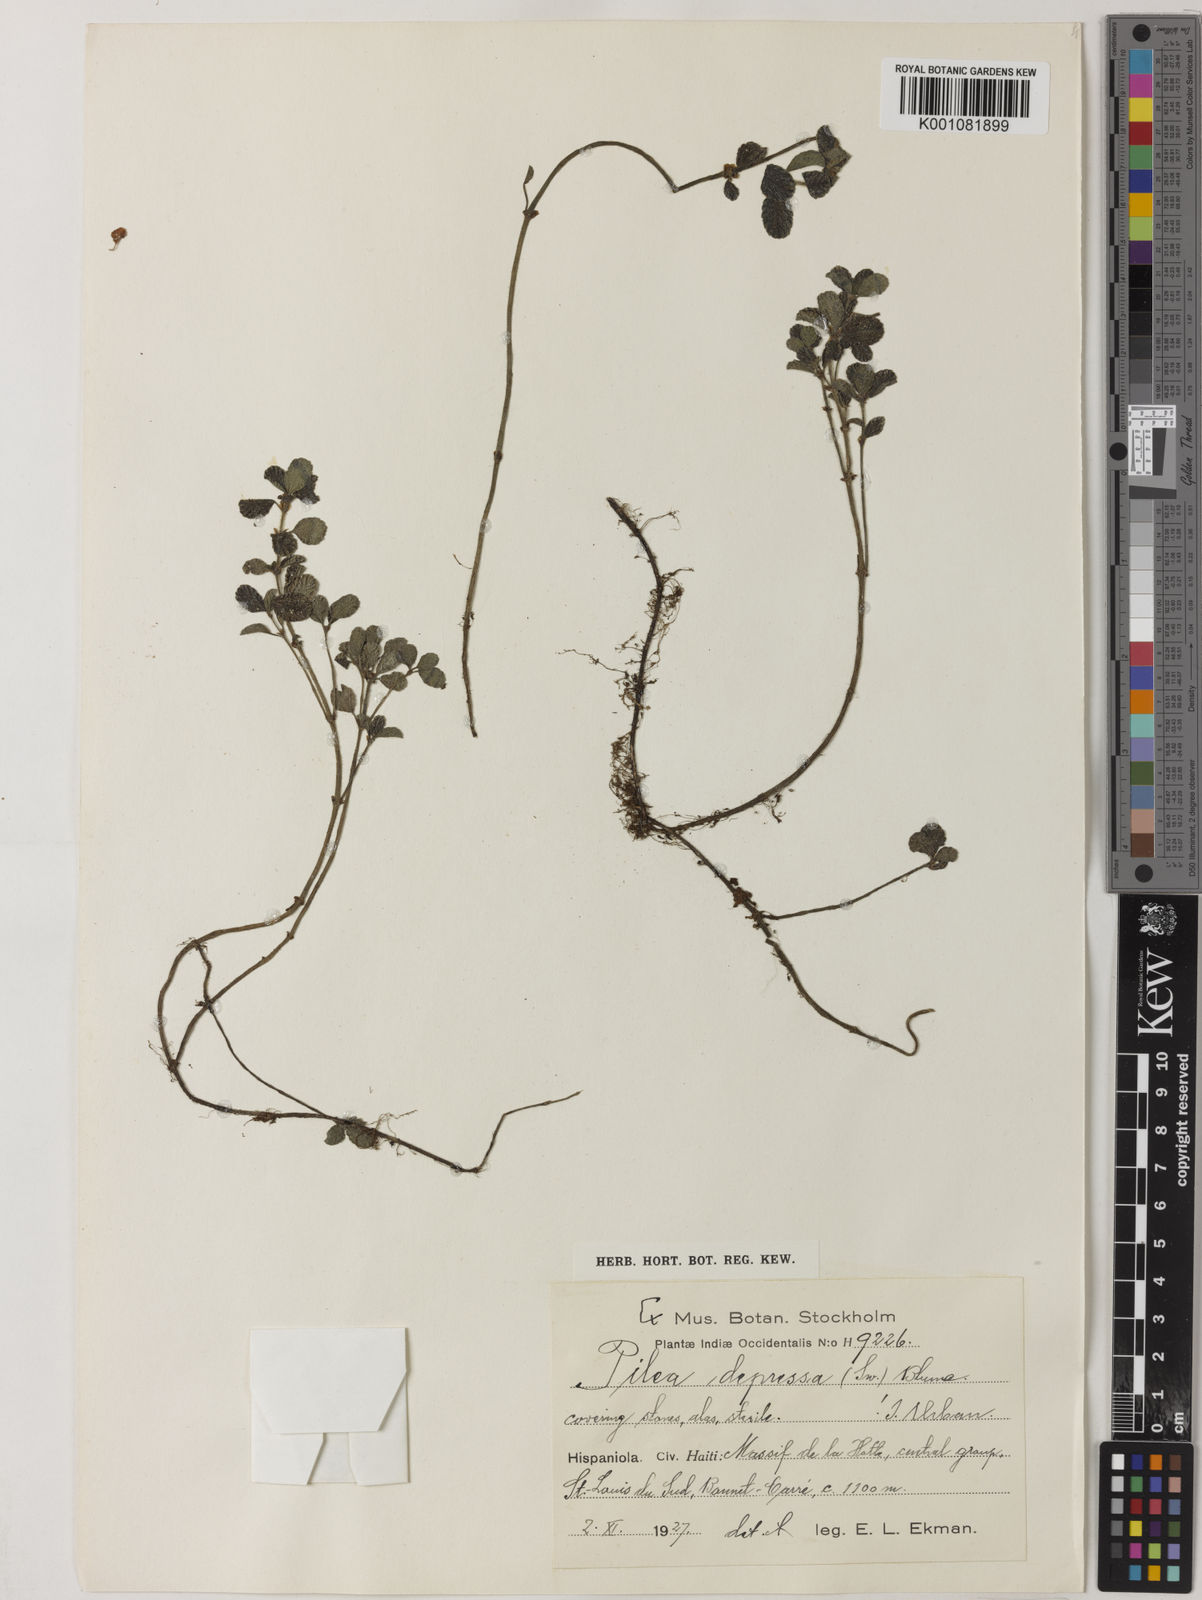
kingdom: Plantae
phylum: Tracheophyta
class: Magnoliopsida
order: Rosales
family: Urticaceae
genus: Pilea
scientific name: Pilea depressa
